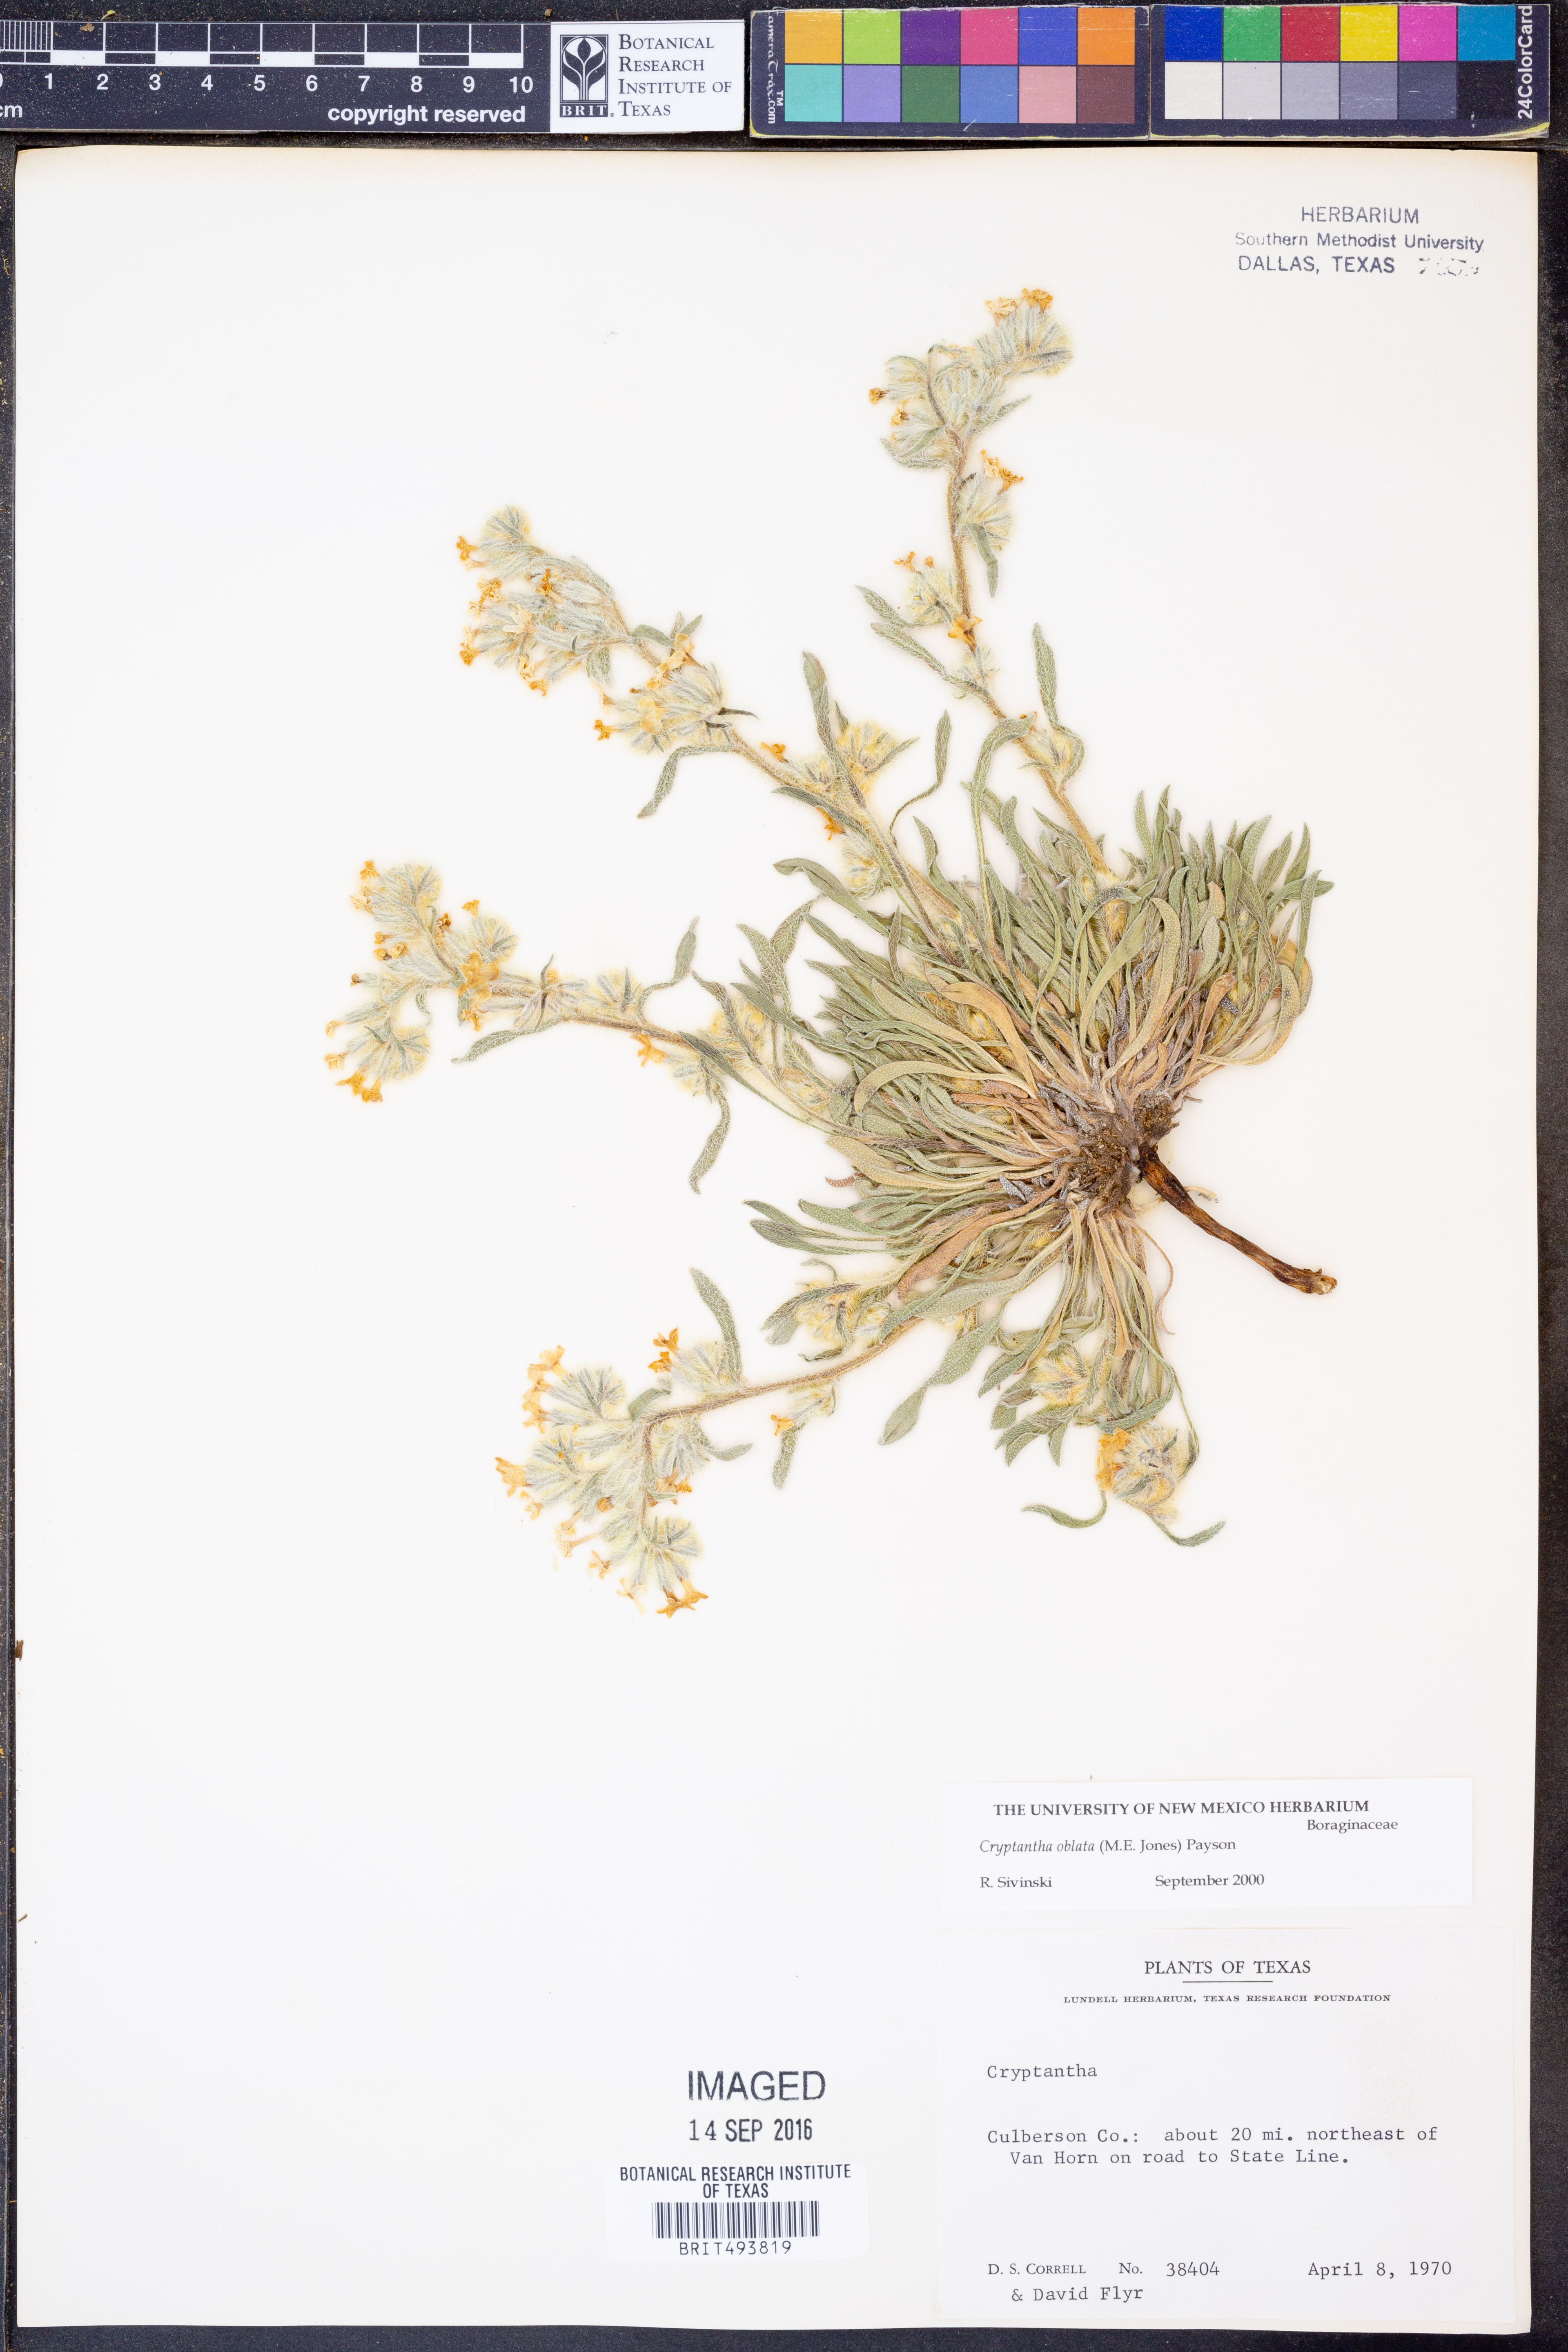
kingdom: Plantae
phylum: Tracheophyta
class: Magnoliopsida
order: Boraginales
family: Boraginaceae
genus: Oreocarya
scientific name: Oreocarya oblata
